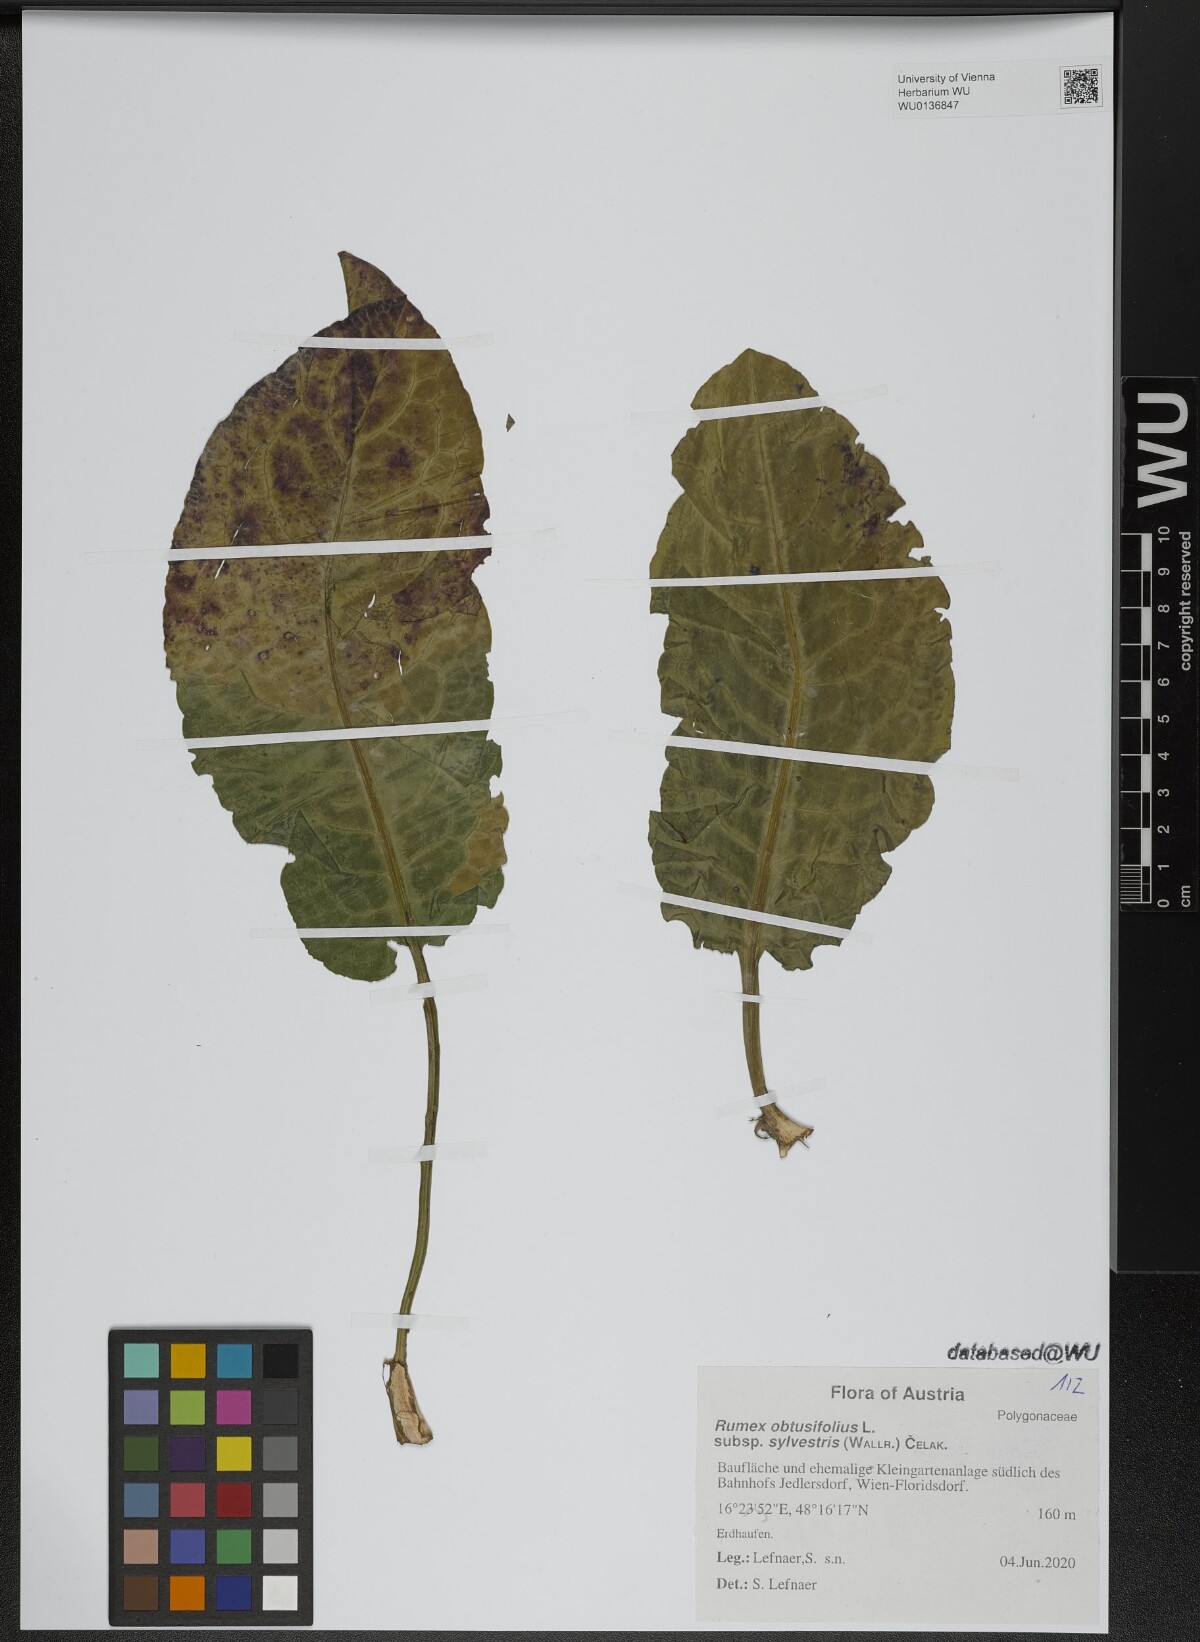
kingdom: Plantae
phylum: Tracheophyta
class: Magnoliopsida
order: Caryophyllales
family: Polygonaceae
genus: Rumex
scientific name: Rumex obtusifolius
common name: Bitter dock
